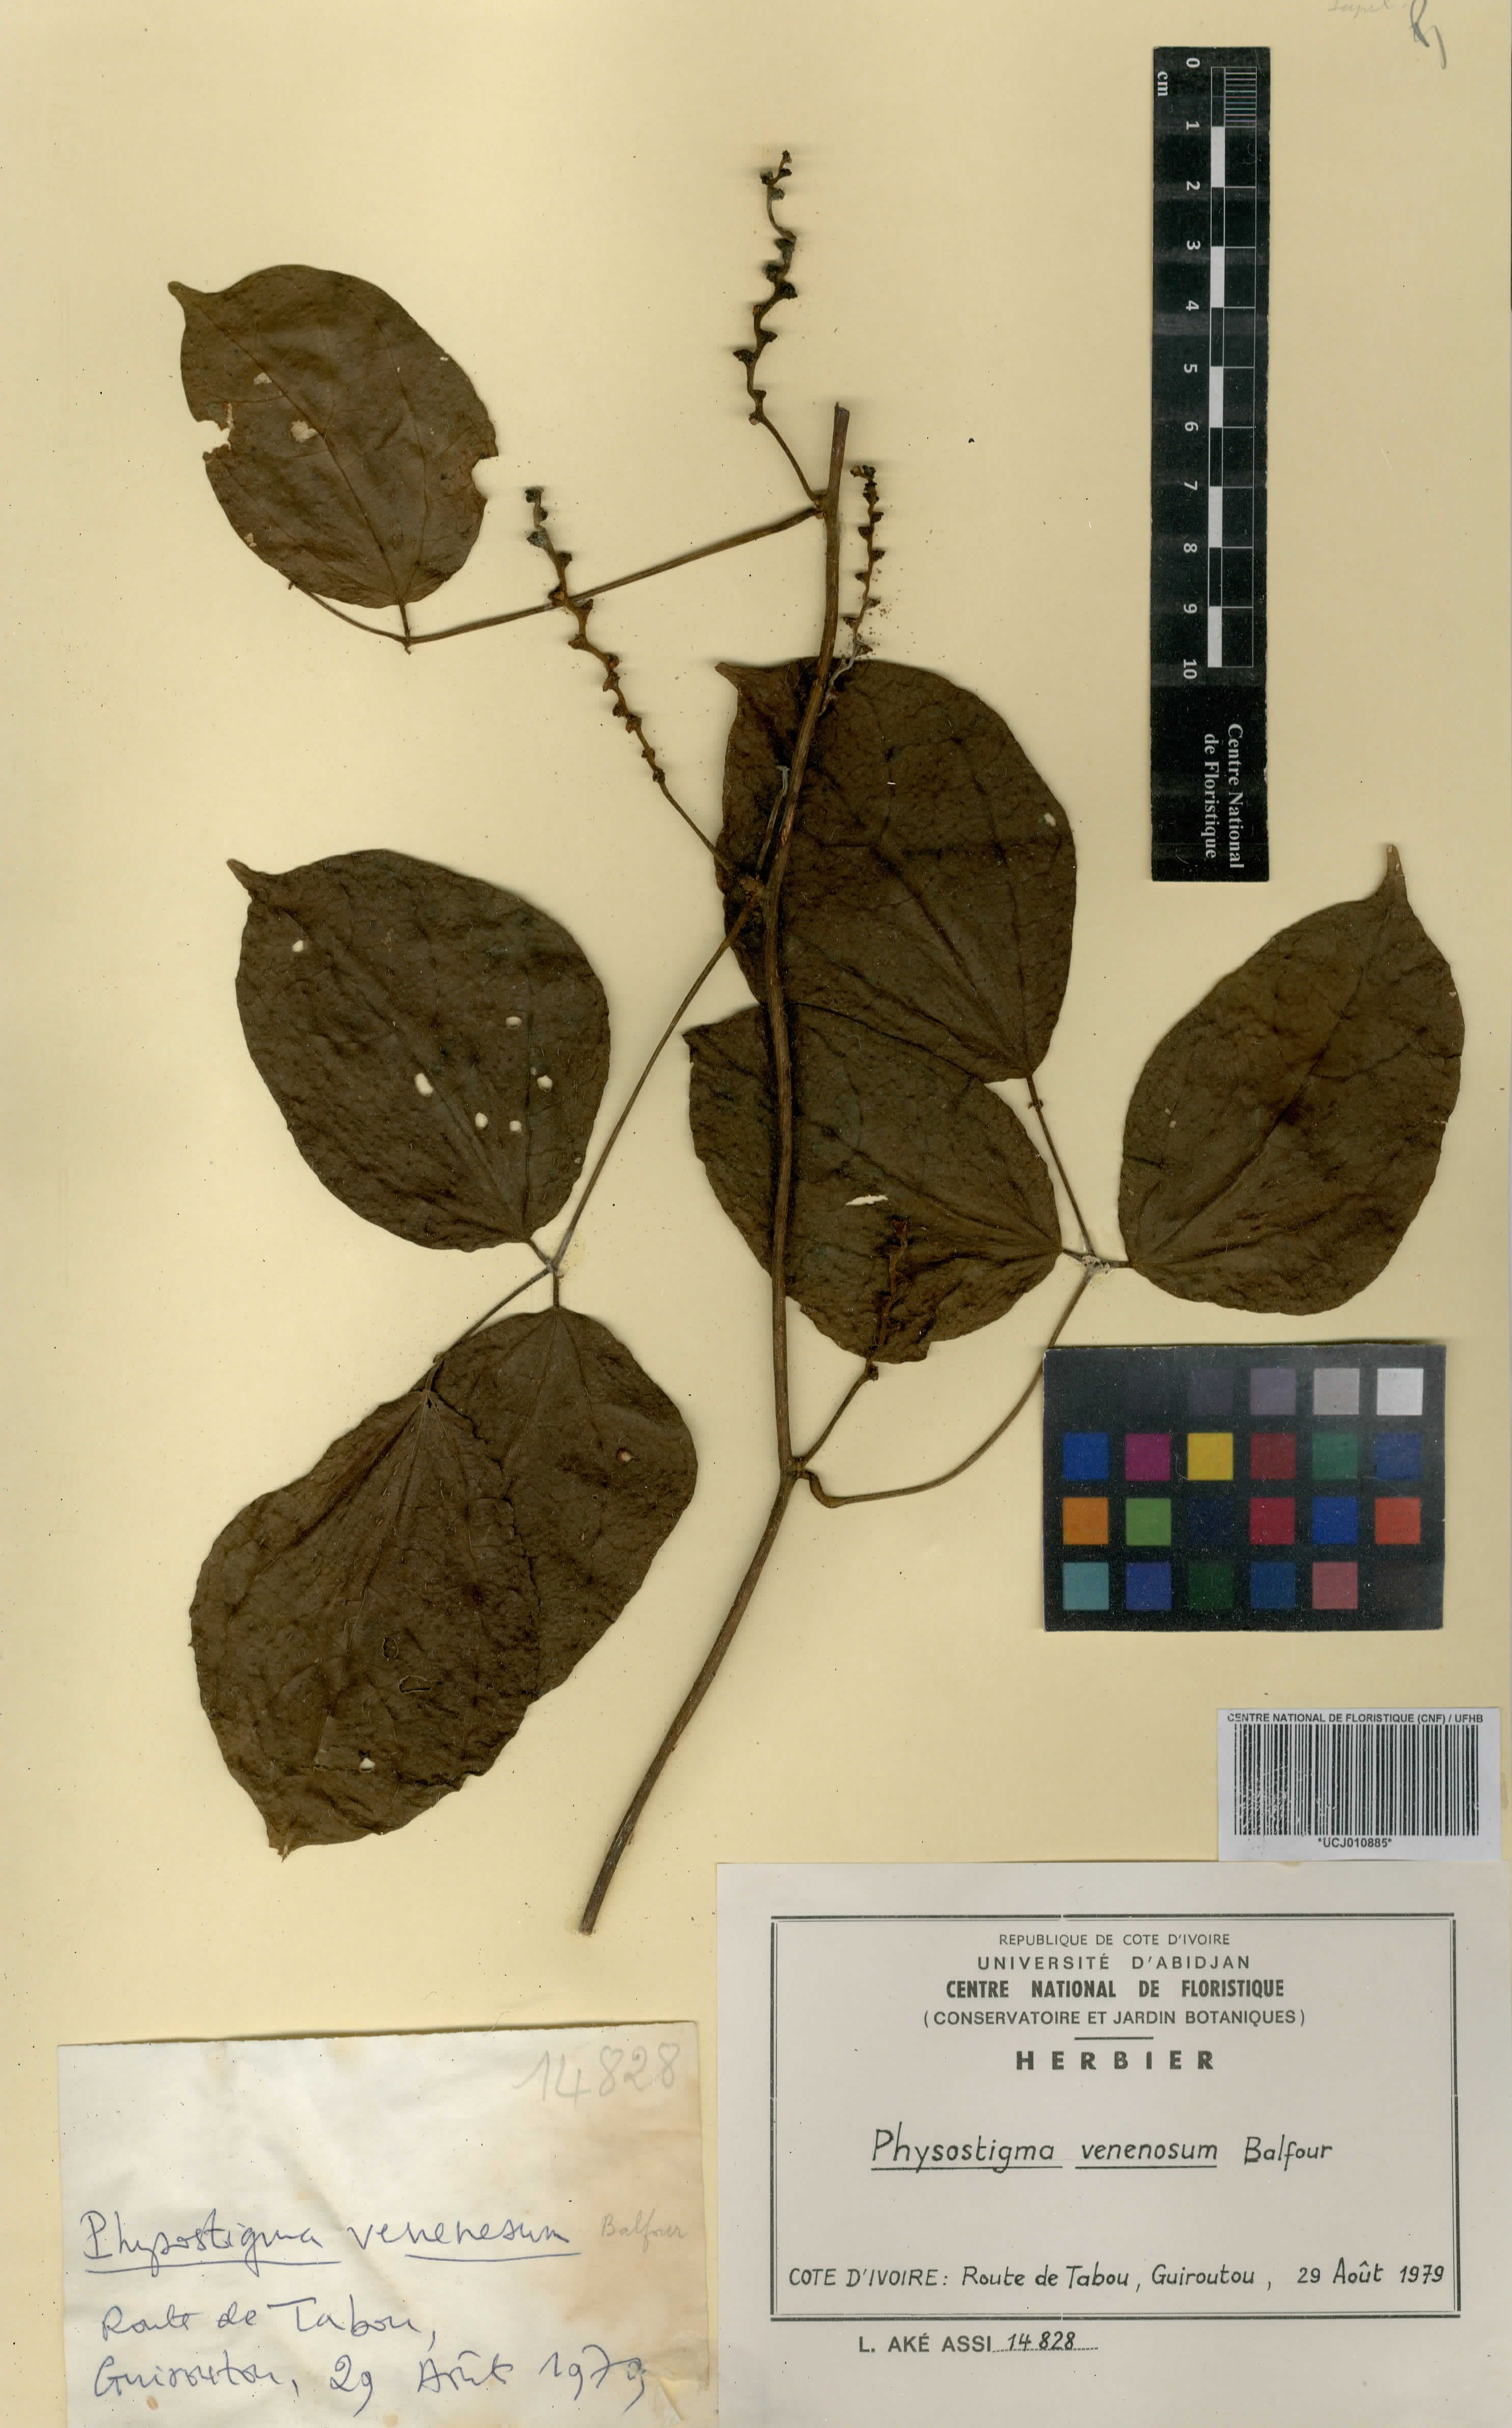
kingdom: Plantae
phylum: Tracheophyta
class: Magnoliopsida
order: Fabales
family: Fabaceae
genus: Physostigma
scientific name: Physostigma venenosum
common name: Calabar-bean
